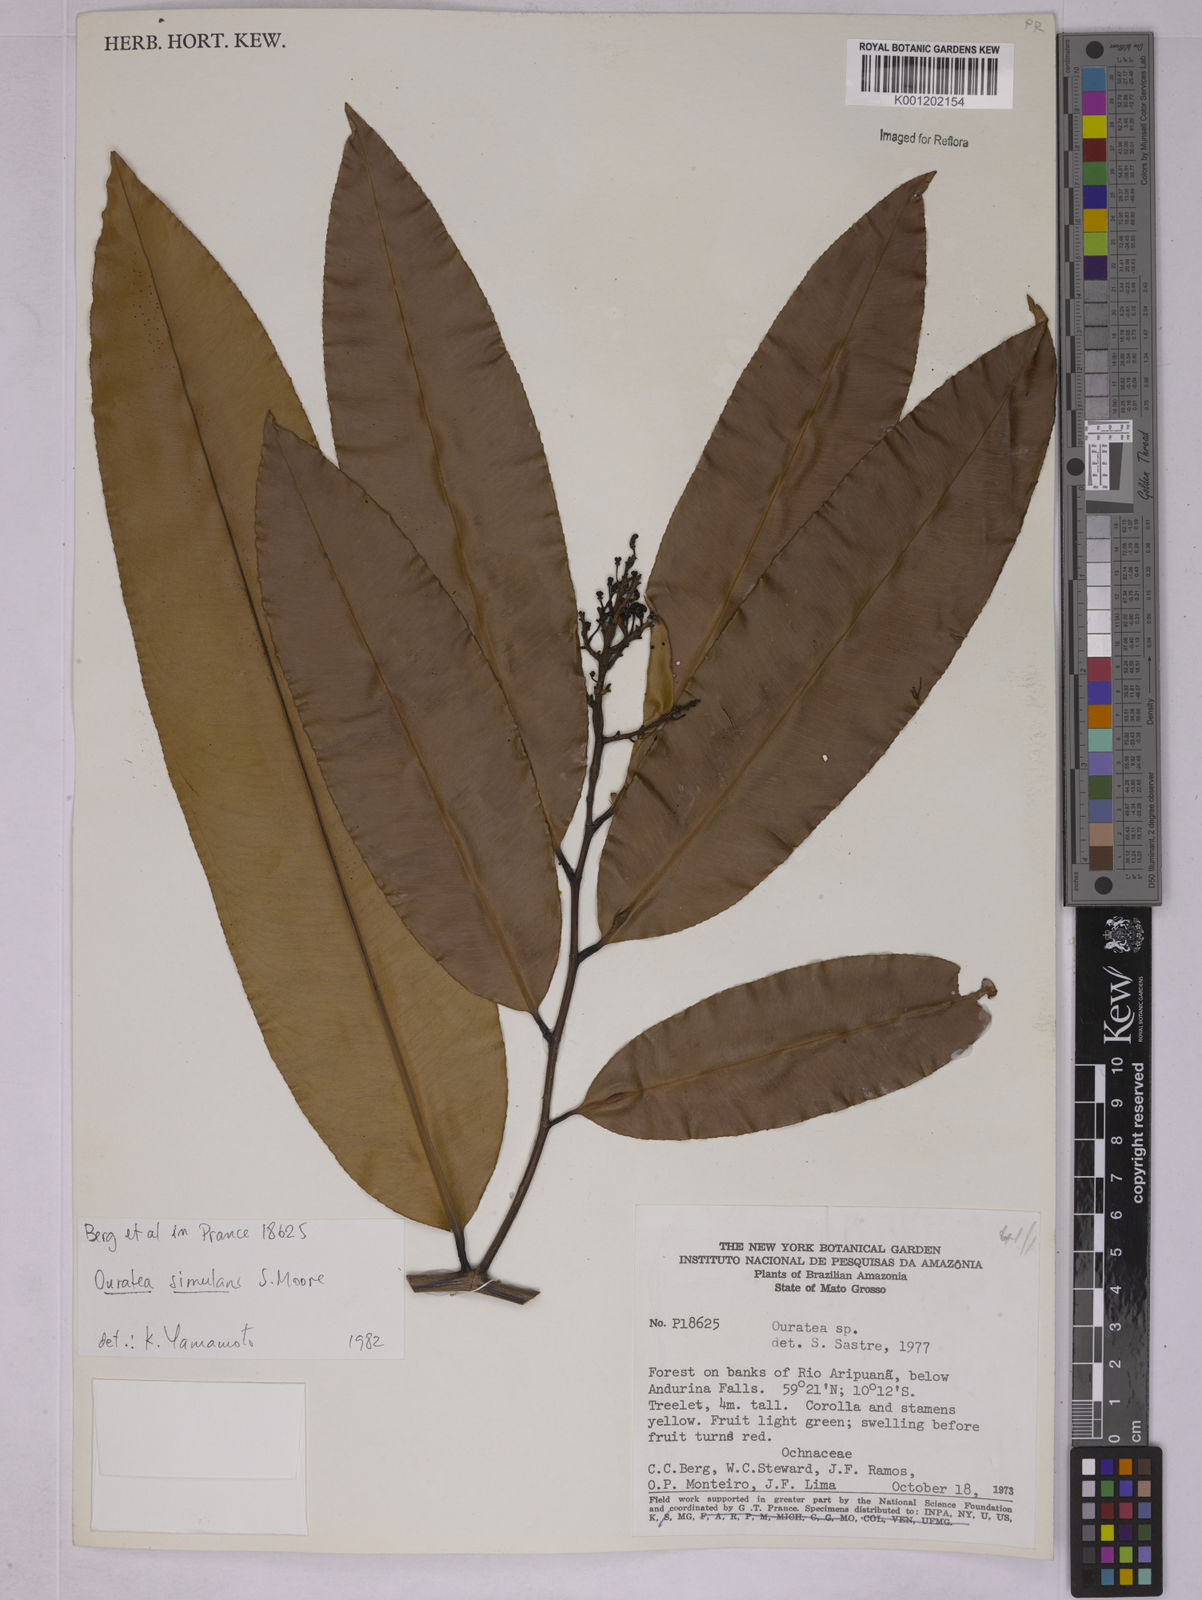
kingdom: Plantae
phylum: Tracheophyta
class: Magnoliopsida
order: Malpighiales
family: Ochnaceae
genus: Ouratea
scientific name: Ouratea simulans
